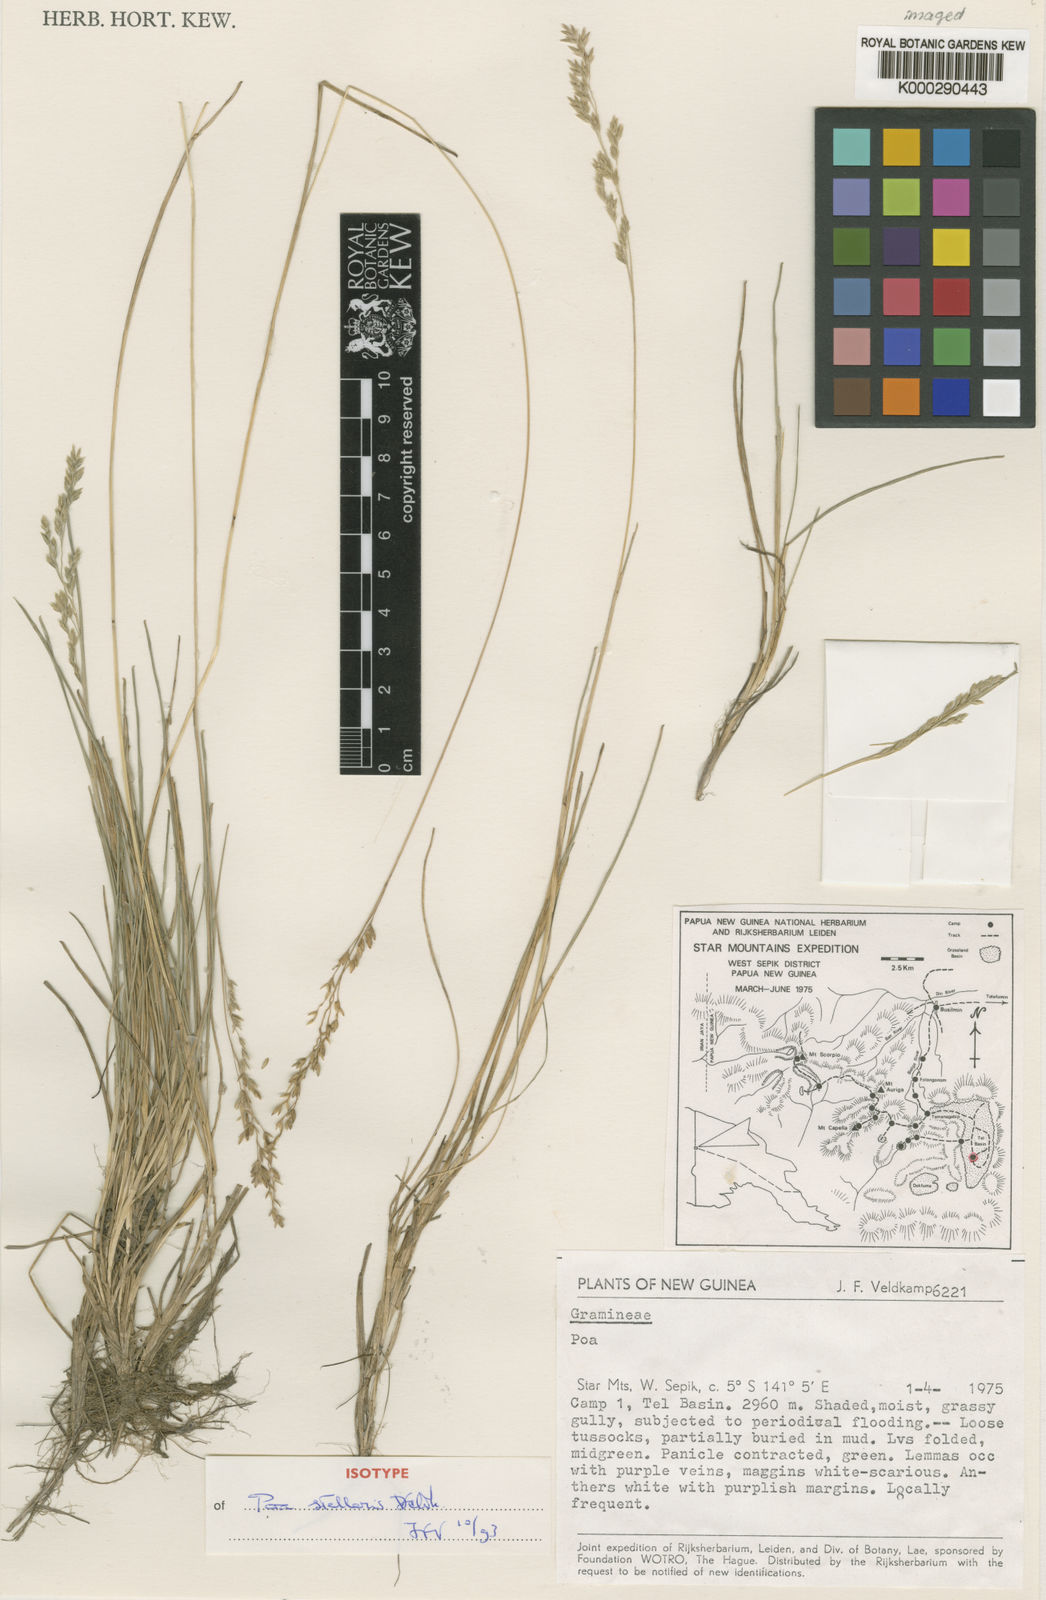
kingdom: Plantae
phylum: Tracheophyta
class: Liliopsida
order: Poales
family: Poaceae
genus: Poa
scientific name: Poa stellaris
